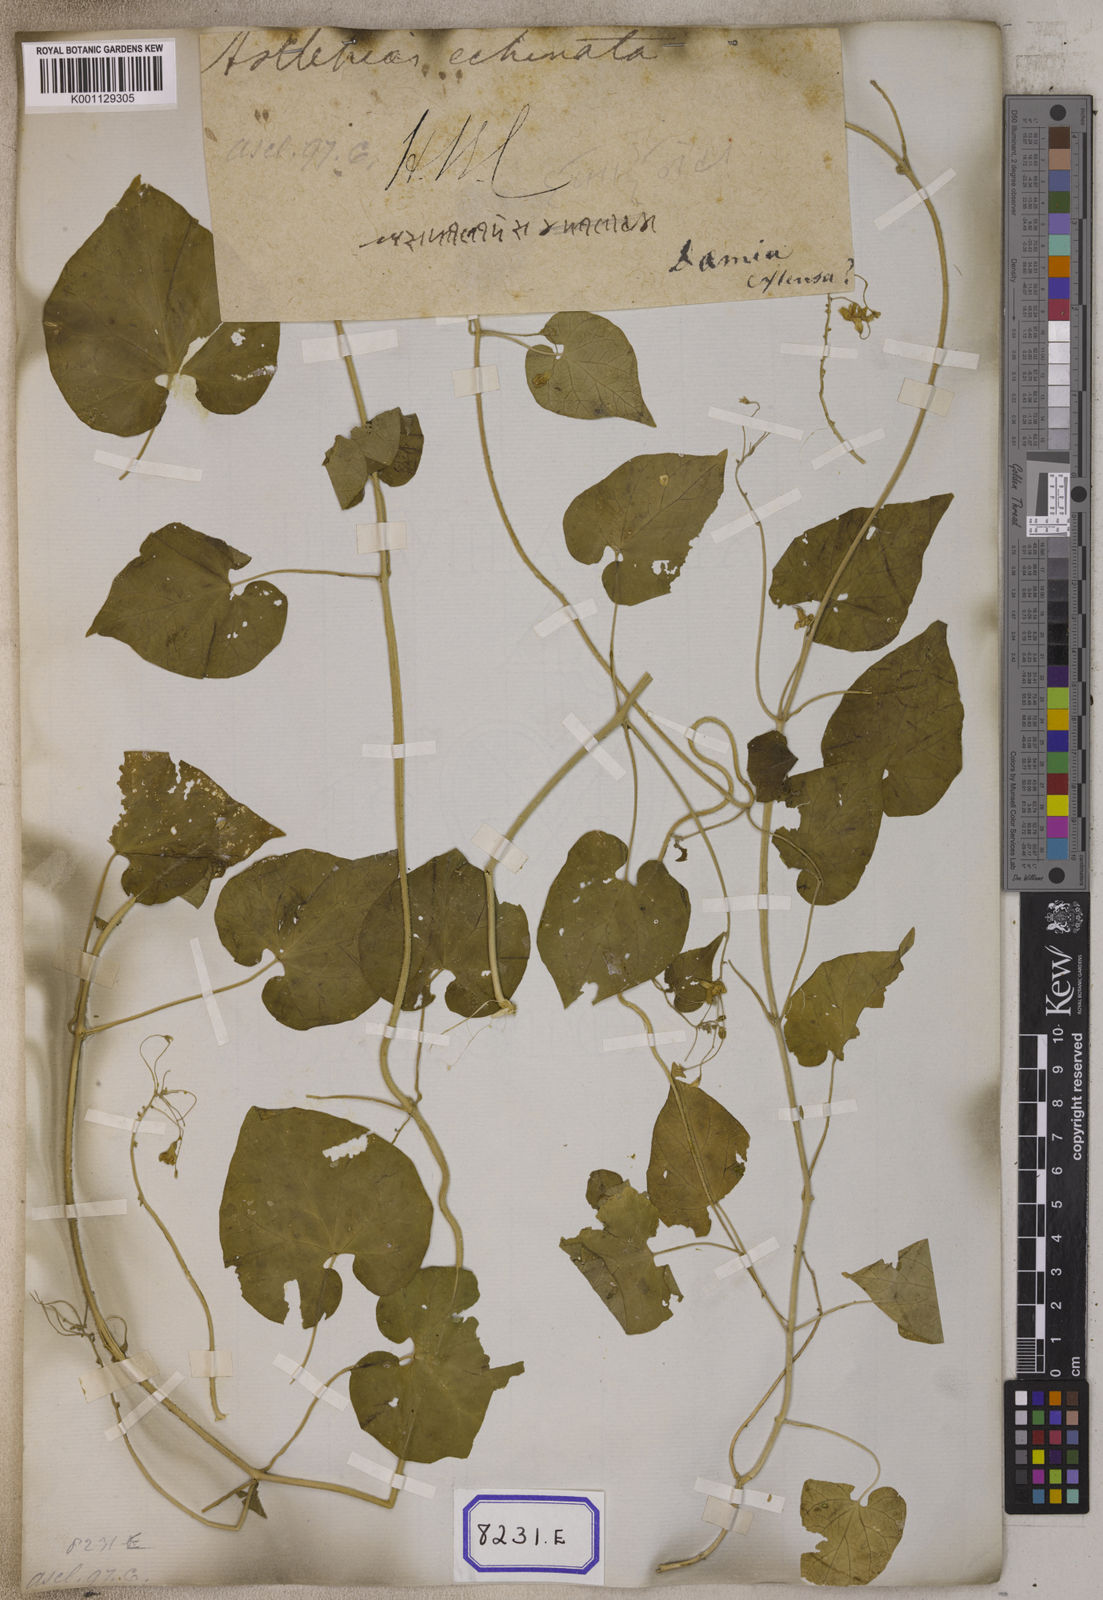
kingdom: Plantae
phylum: Tracheophyta
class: Magnoliopsida
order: Gentianales
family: Apocynaceae
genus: Pergularia
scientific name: Pergularia
